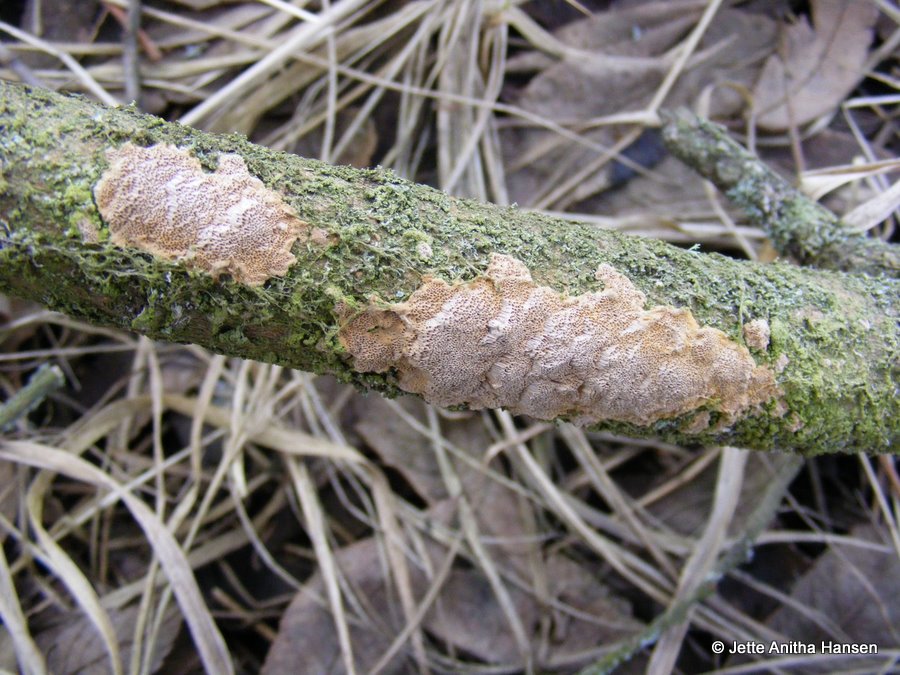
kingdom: Fungi
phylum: Basidiomycota
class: Agaricomycetes
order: Hymenochaetales
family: Hymenochaetaceae
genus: Fuscoporia
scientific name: Fuscoporia ferrea
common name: skorpe-ildporesvamp
